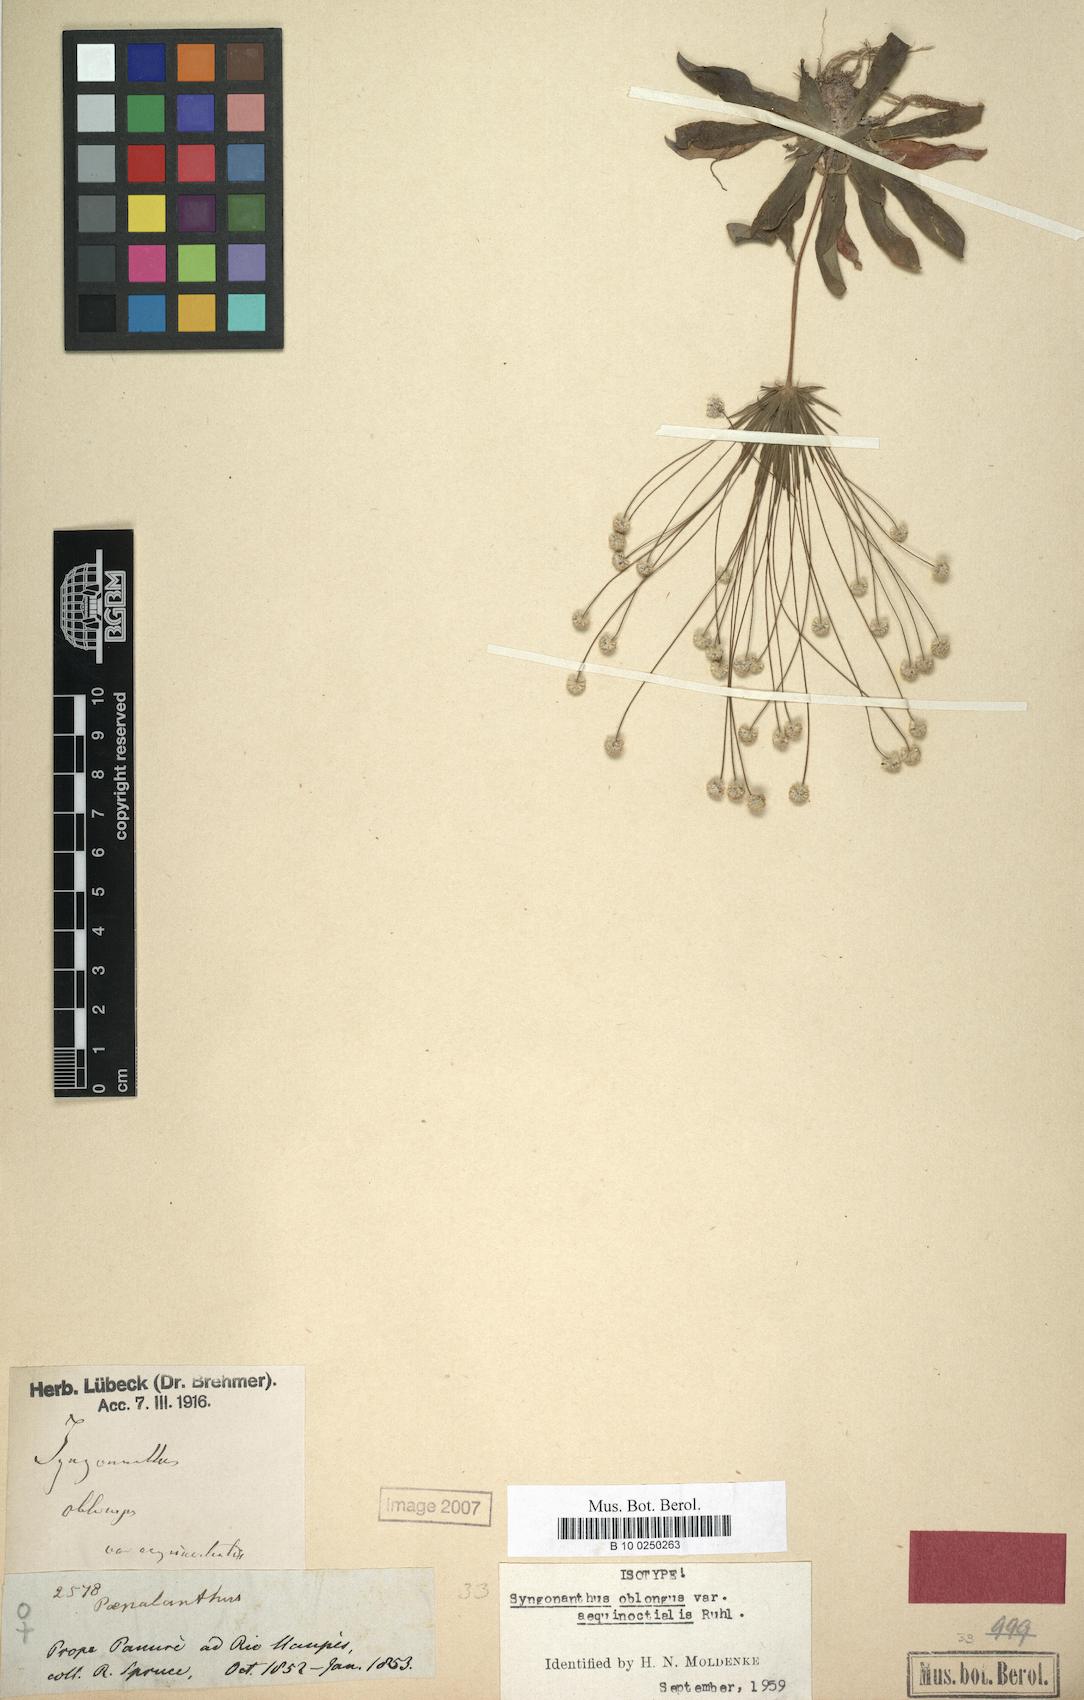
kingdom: Plantae
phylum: Tracheophyta
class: Liliopsida
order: Poales
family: Eriocaulaceae
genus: Syngonanthus
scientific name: Syngonanthus oblongus
